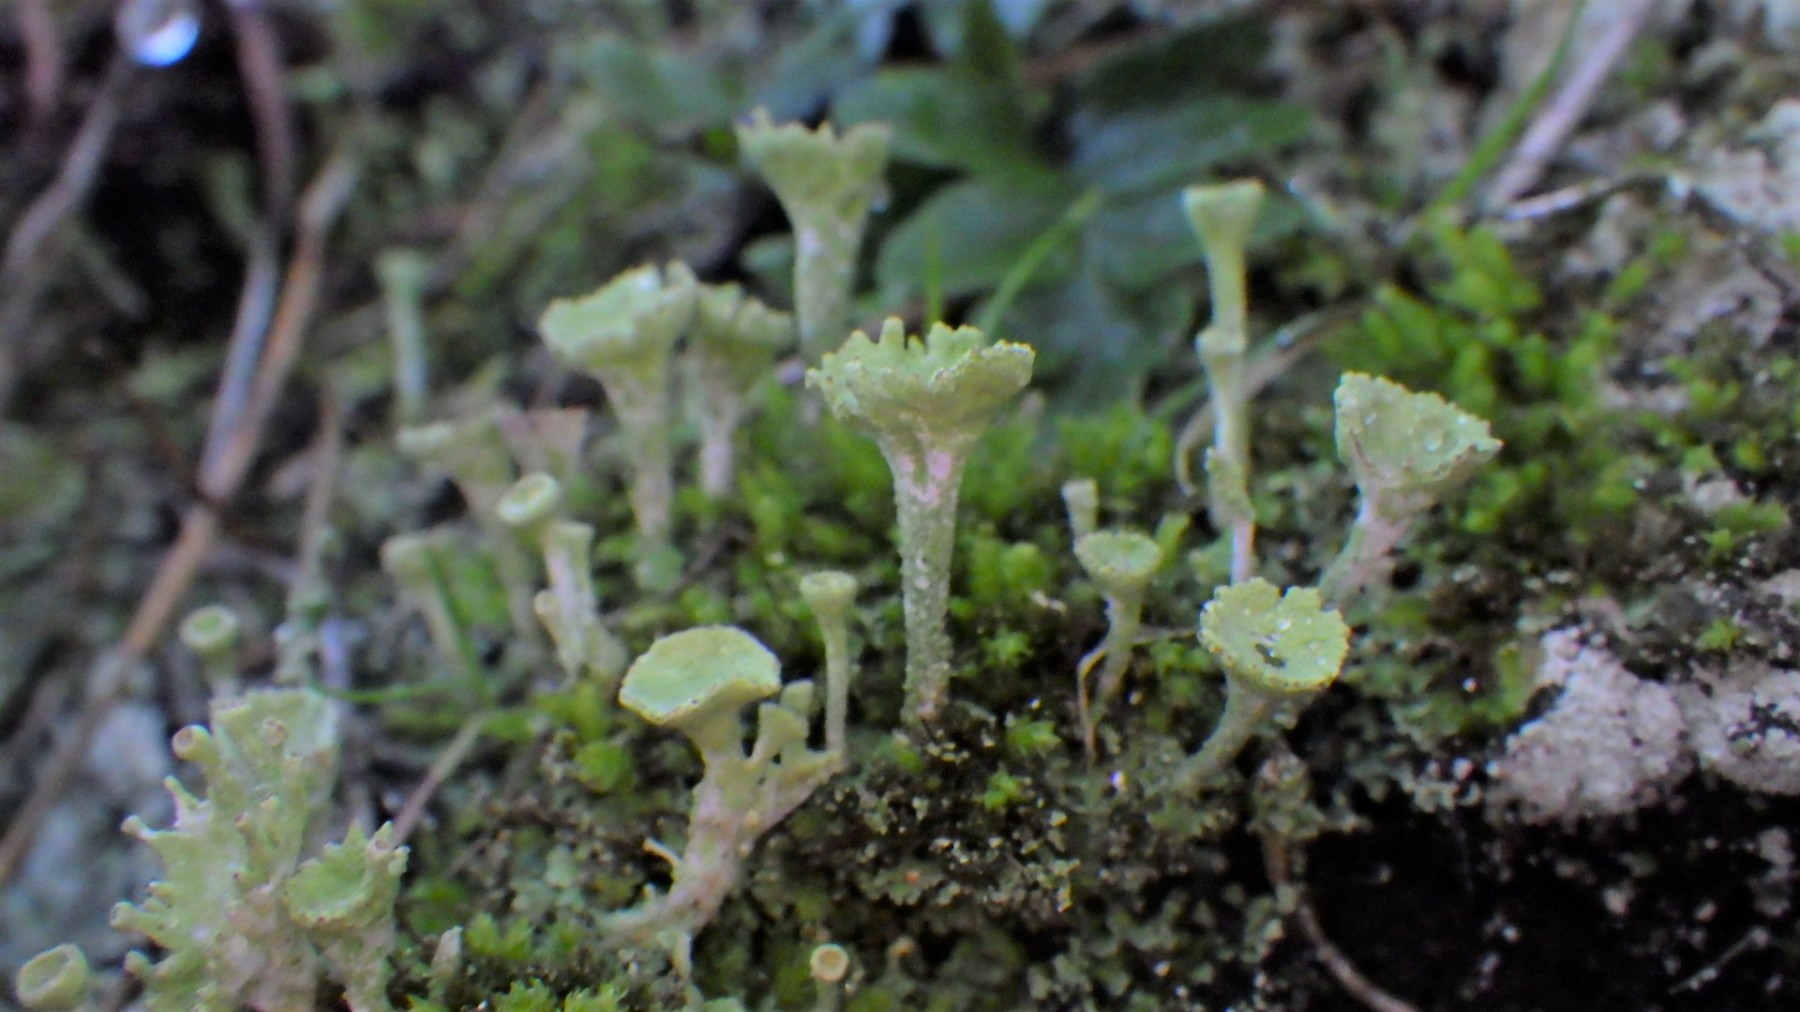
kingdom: Fungi
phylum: Ascomycota
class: Lecanoromycetes
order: Lecanorales
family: Cladoniaceae
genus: Cladonia
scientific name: Cladonia
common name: brungrøn bægerlav
